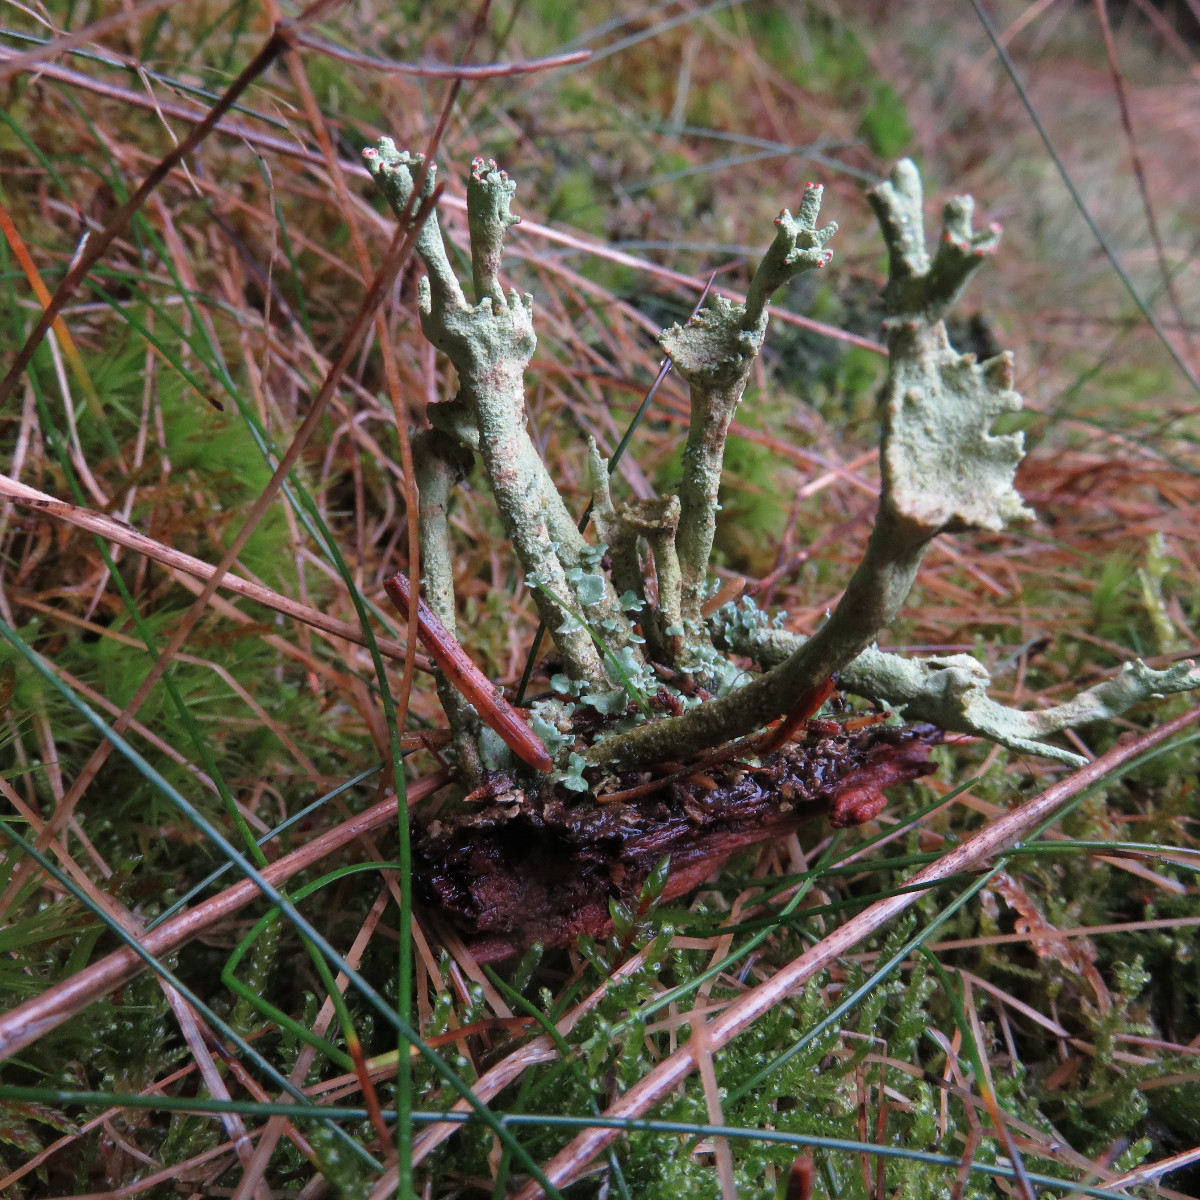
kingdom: Fungi
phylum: Ascomycota
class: Lecanoromycetes
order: Lecanorales
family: Cladoniaceae
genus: Cladonia
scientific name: Cladonia polydactyla
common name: vifte-bægerlav
